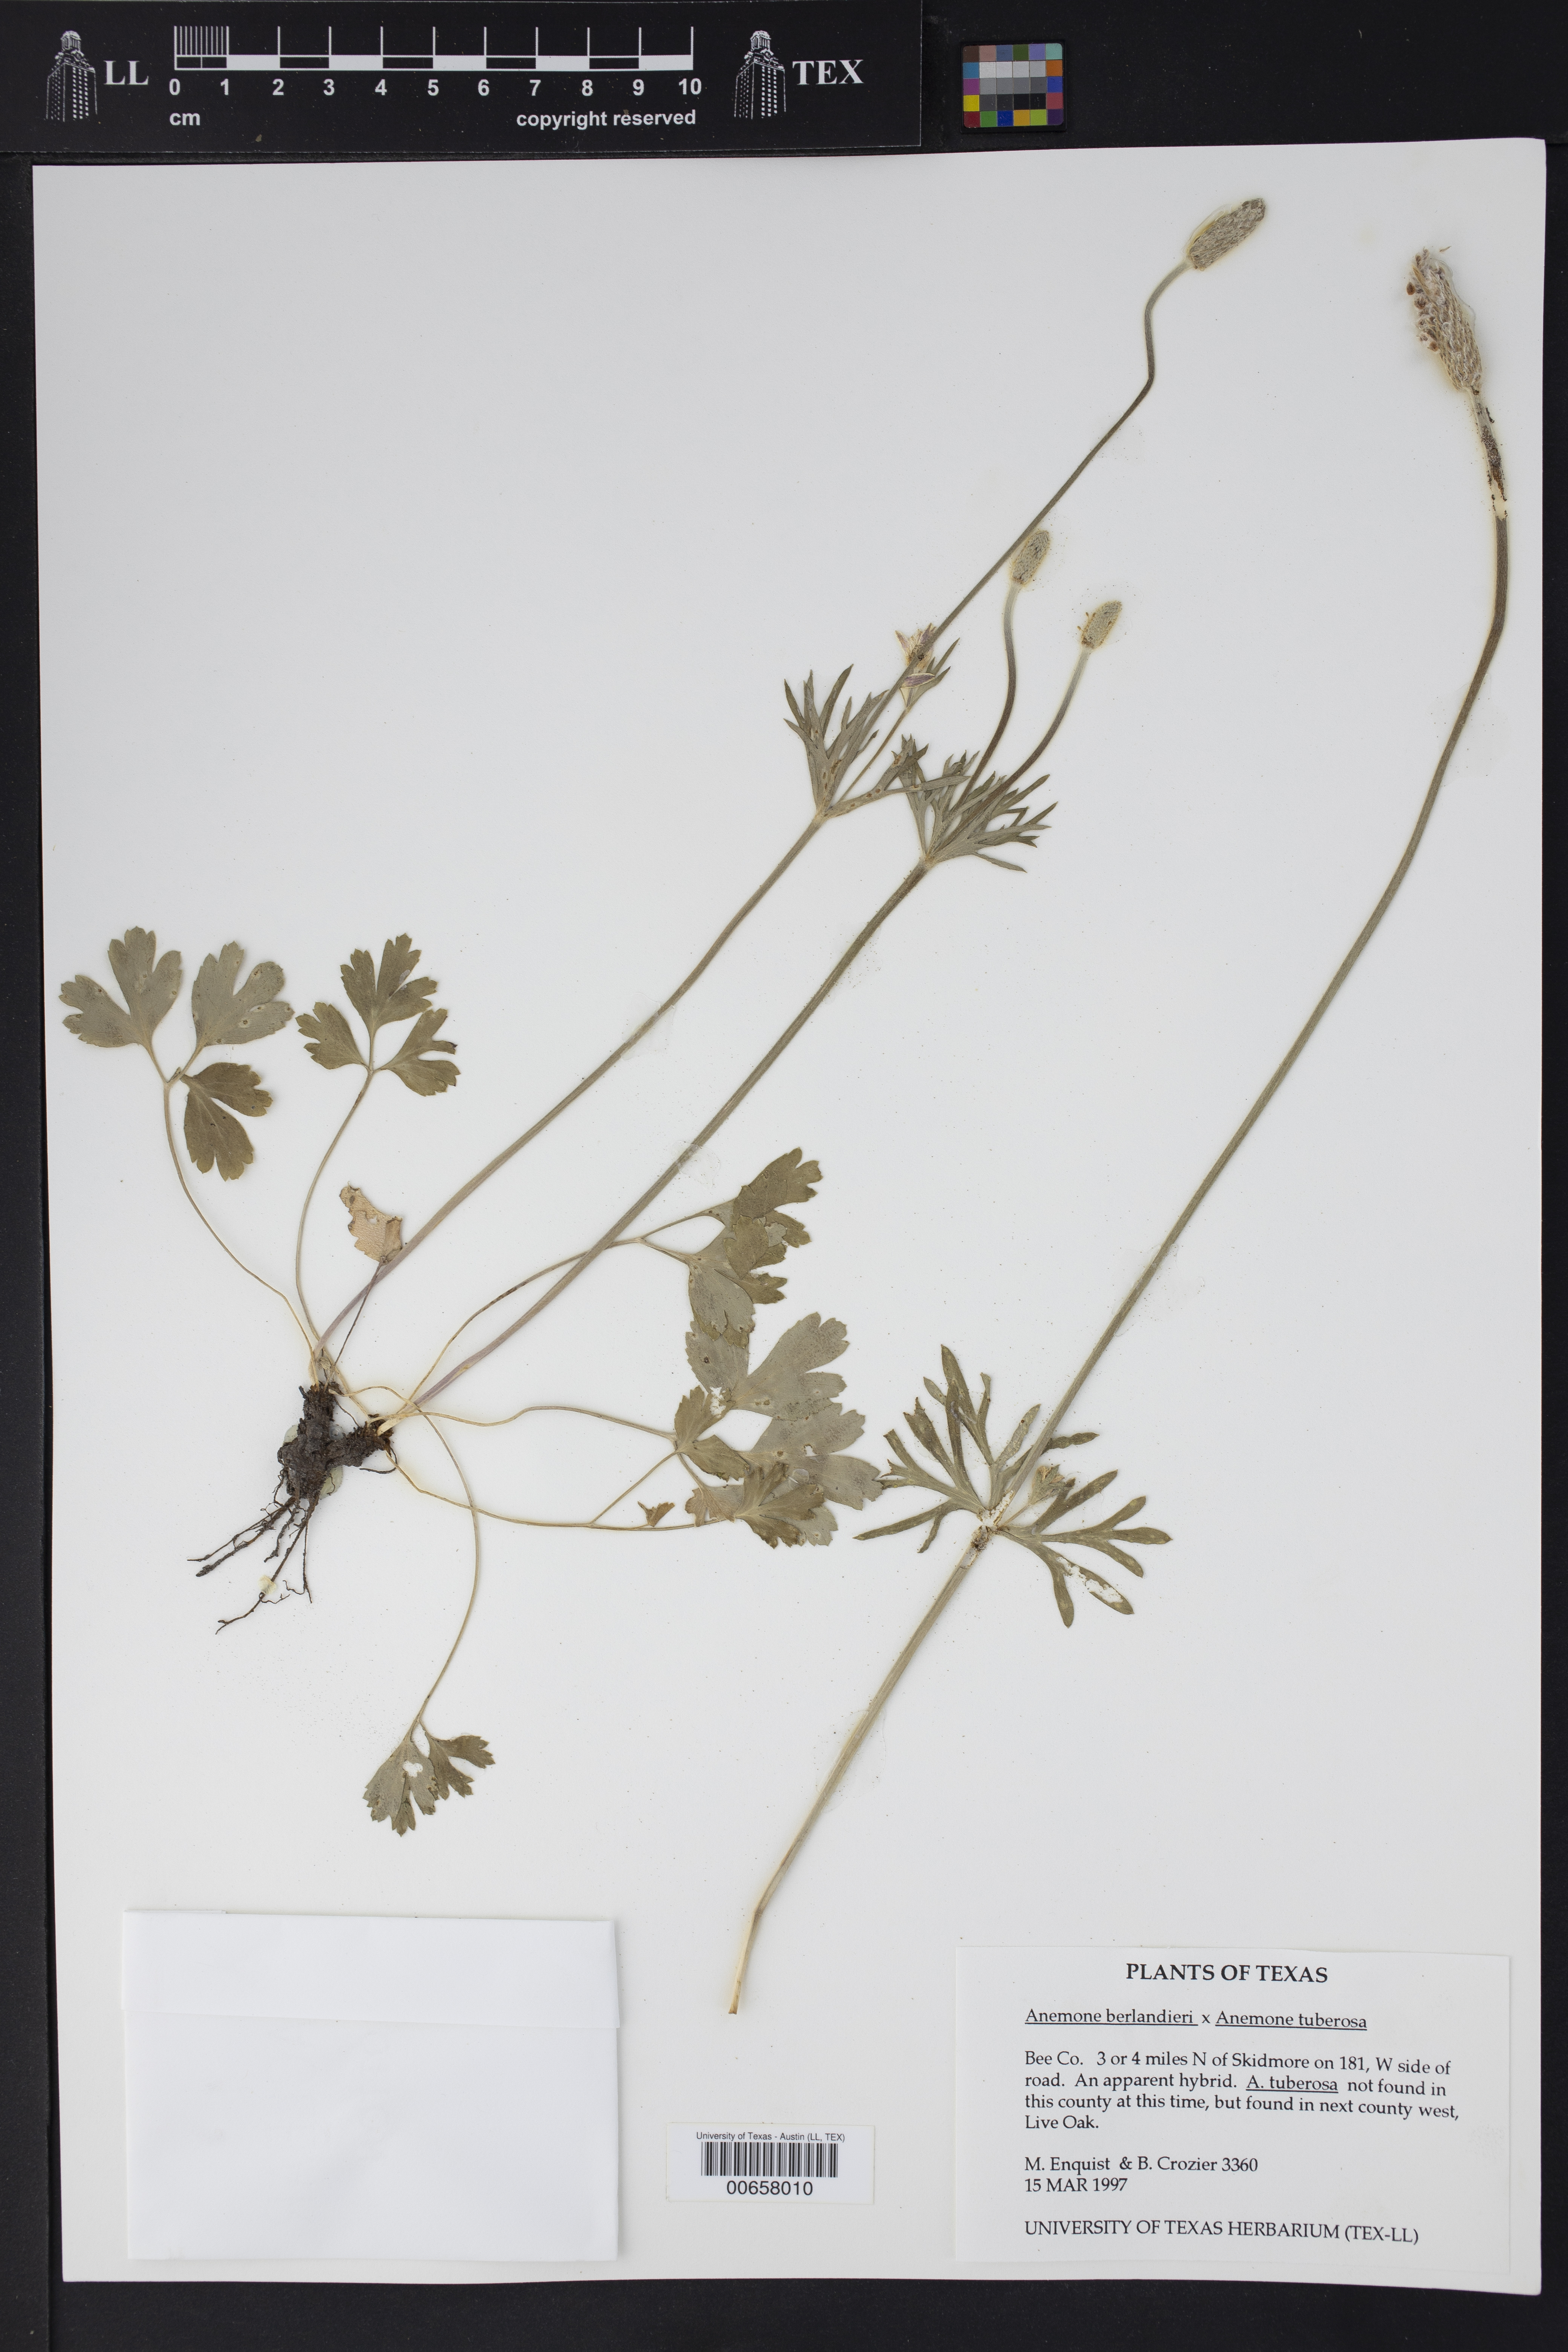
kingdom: Plantae
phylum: Tracheophyta
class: Magnoliopsida
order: Ranunculales
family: Ranunculaceae
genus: Anemone
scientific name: Anemone berlandieri
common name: Ten-petal anemone
